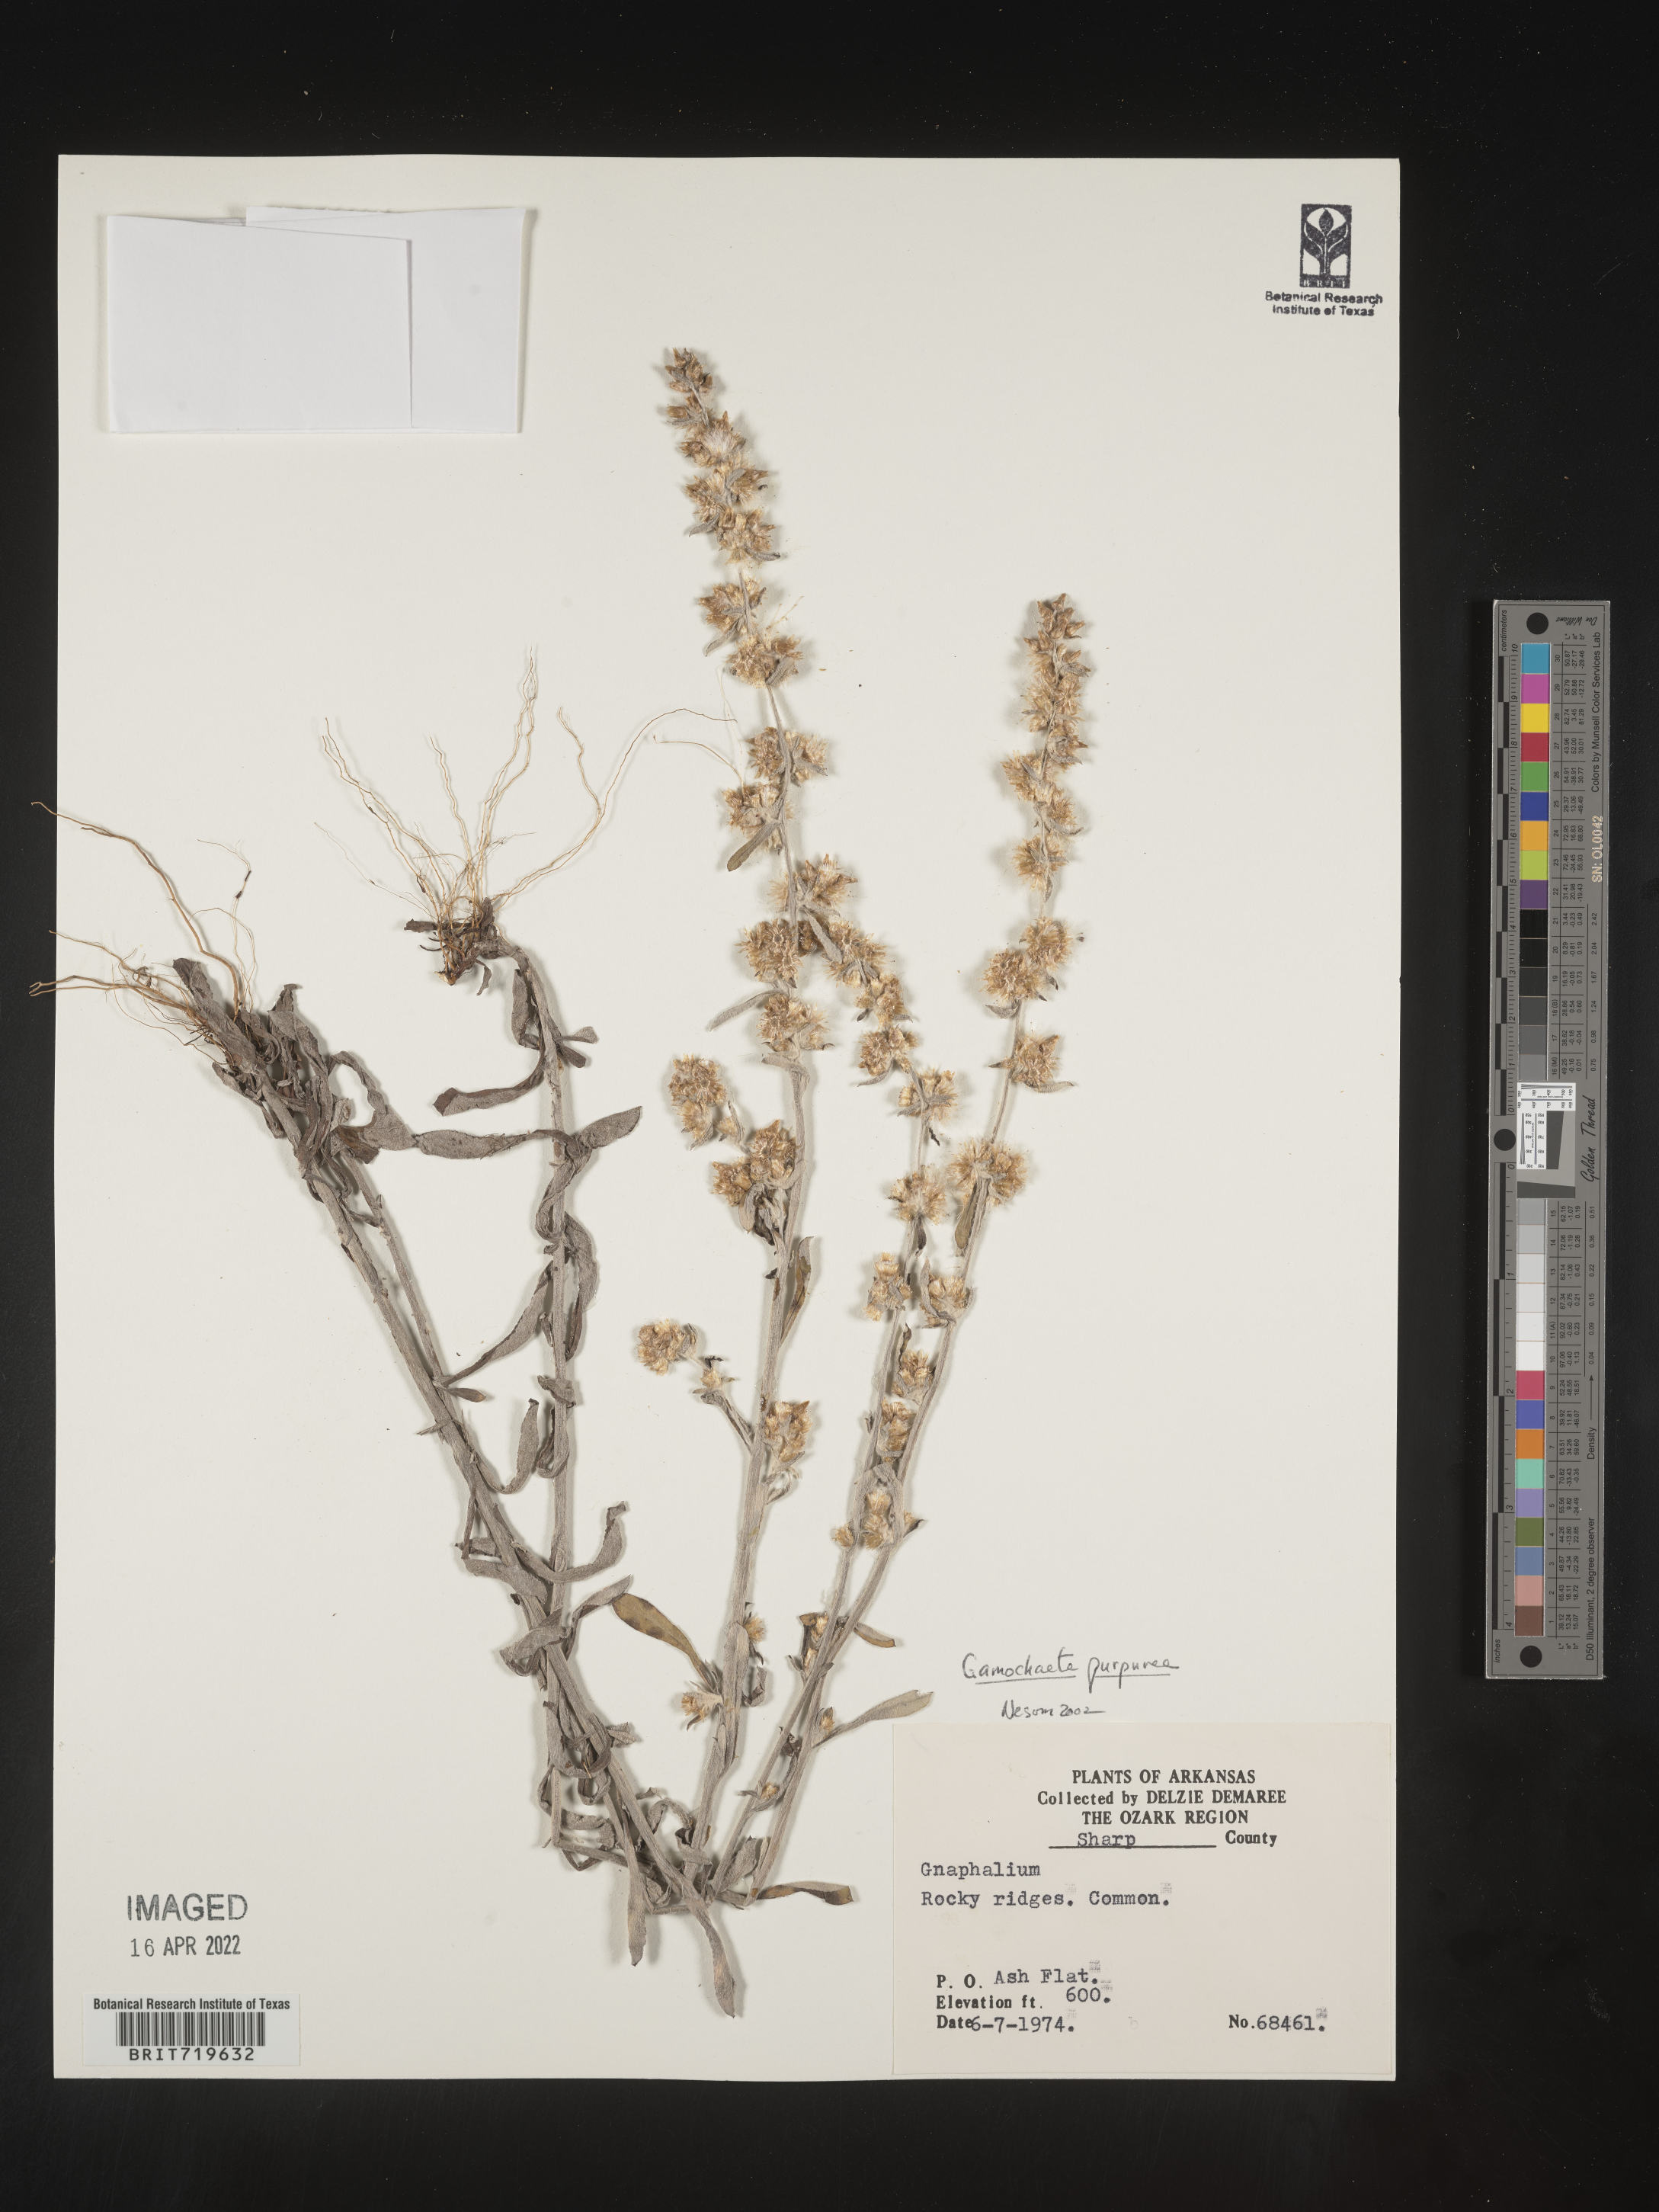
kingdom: Plantae
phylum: Tracheophyta
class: Magnoliopsida
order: Asterales
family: Asteraceae
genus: Gamochaeta
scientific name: Gamochaeta purpurea
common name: Purple cudweed
